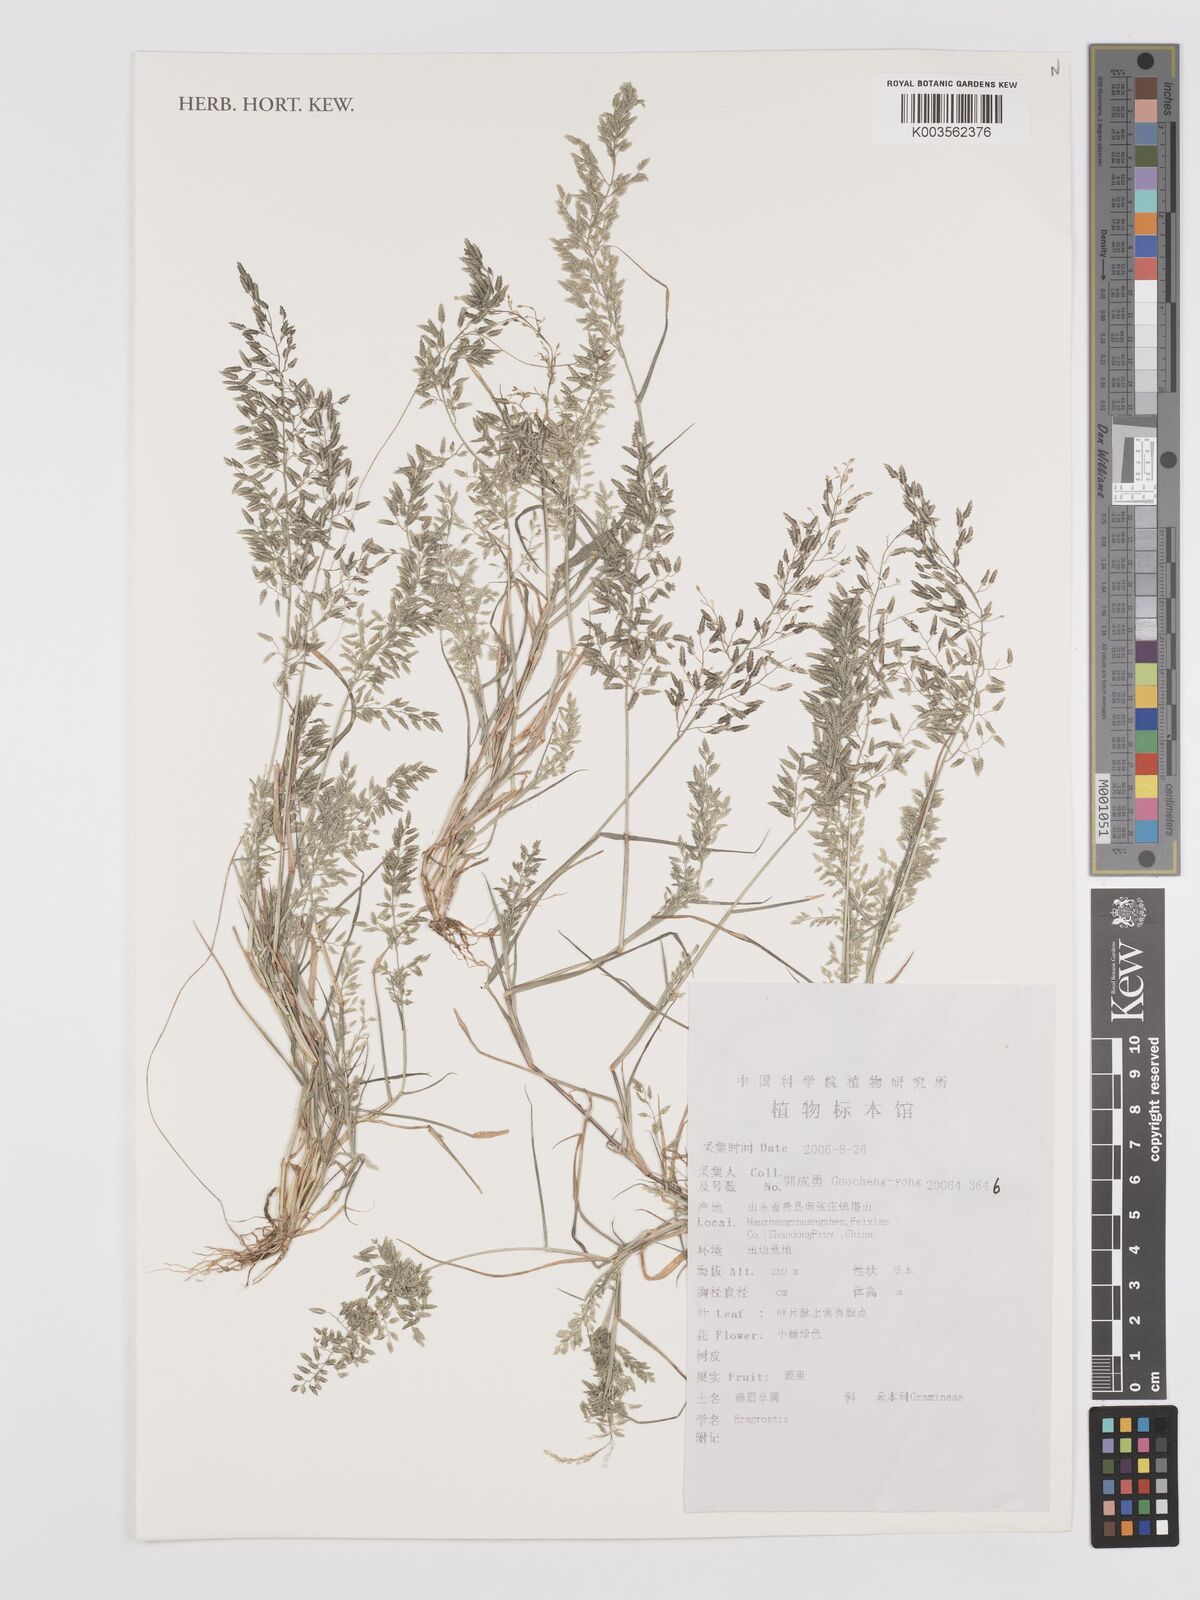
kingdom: Plantae
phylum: Tracheophyta
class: Liliopsida
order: Poales
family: Poaceae
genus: Eragrostis
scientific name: Eragrostis
